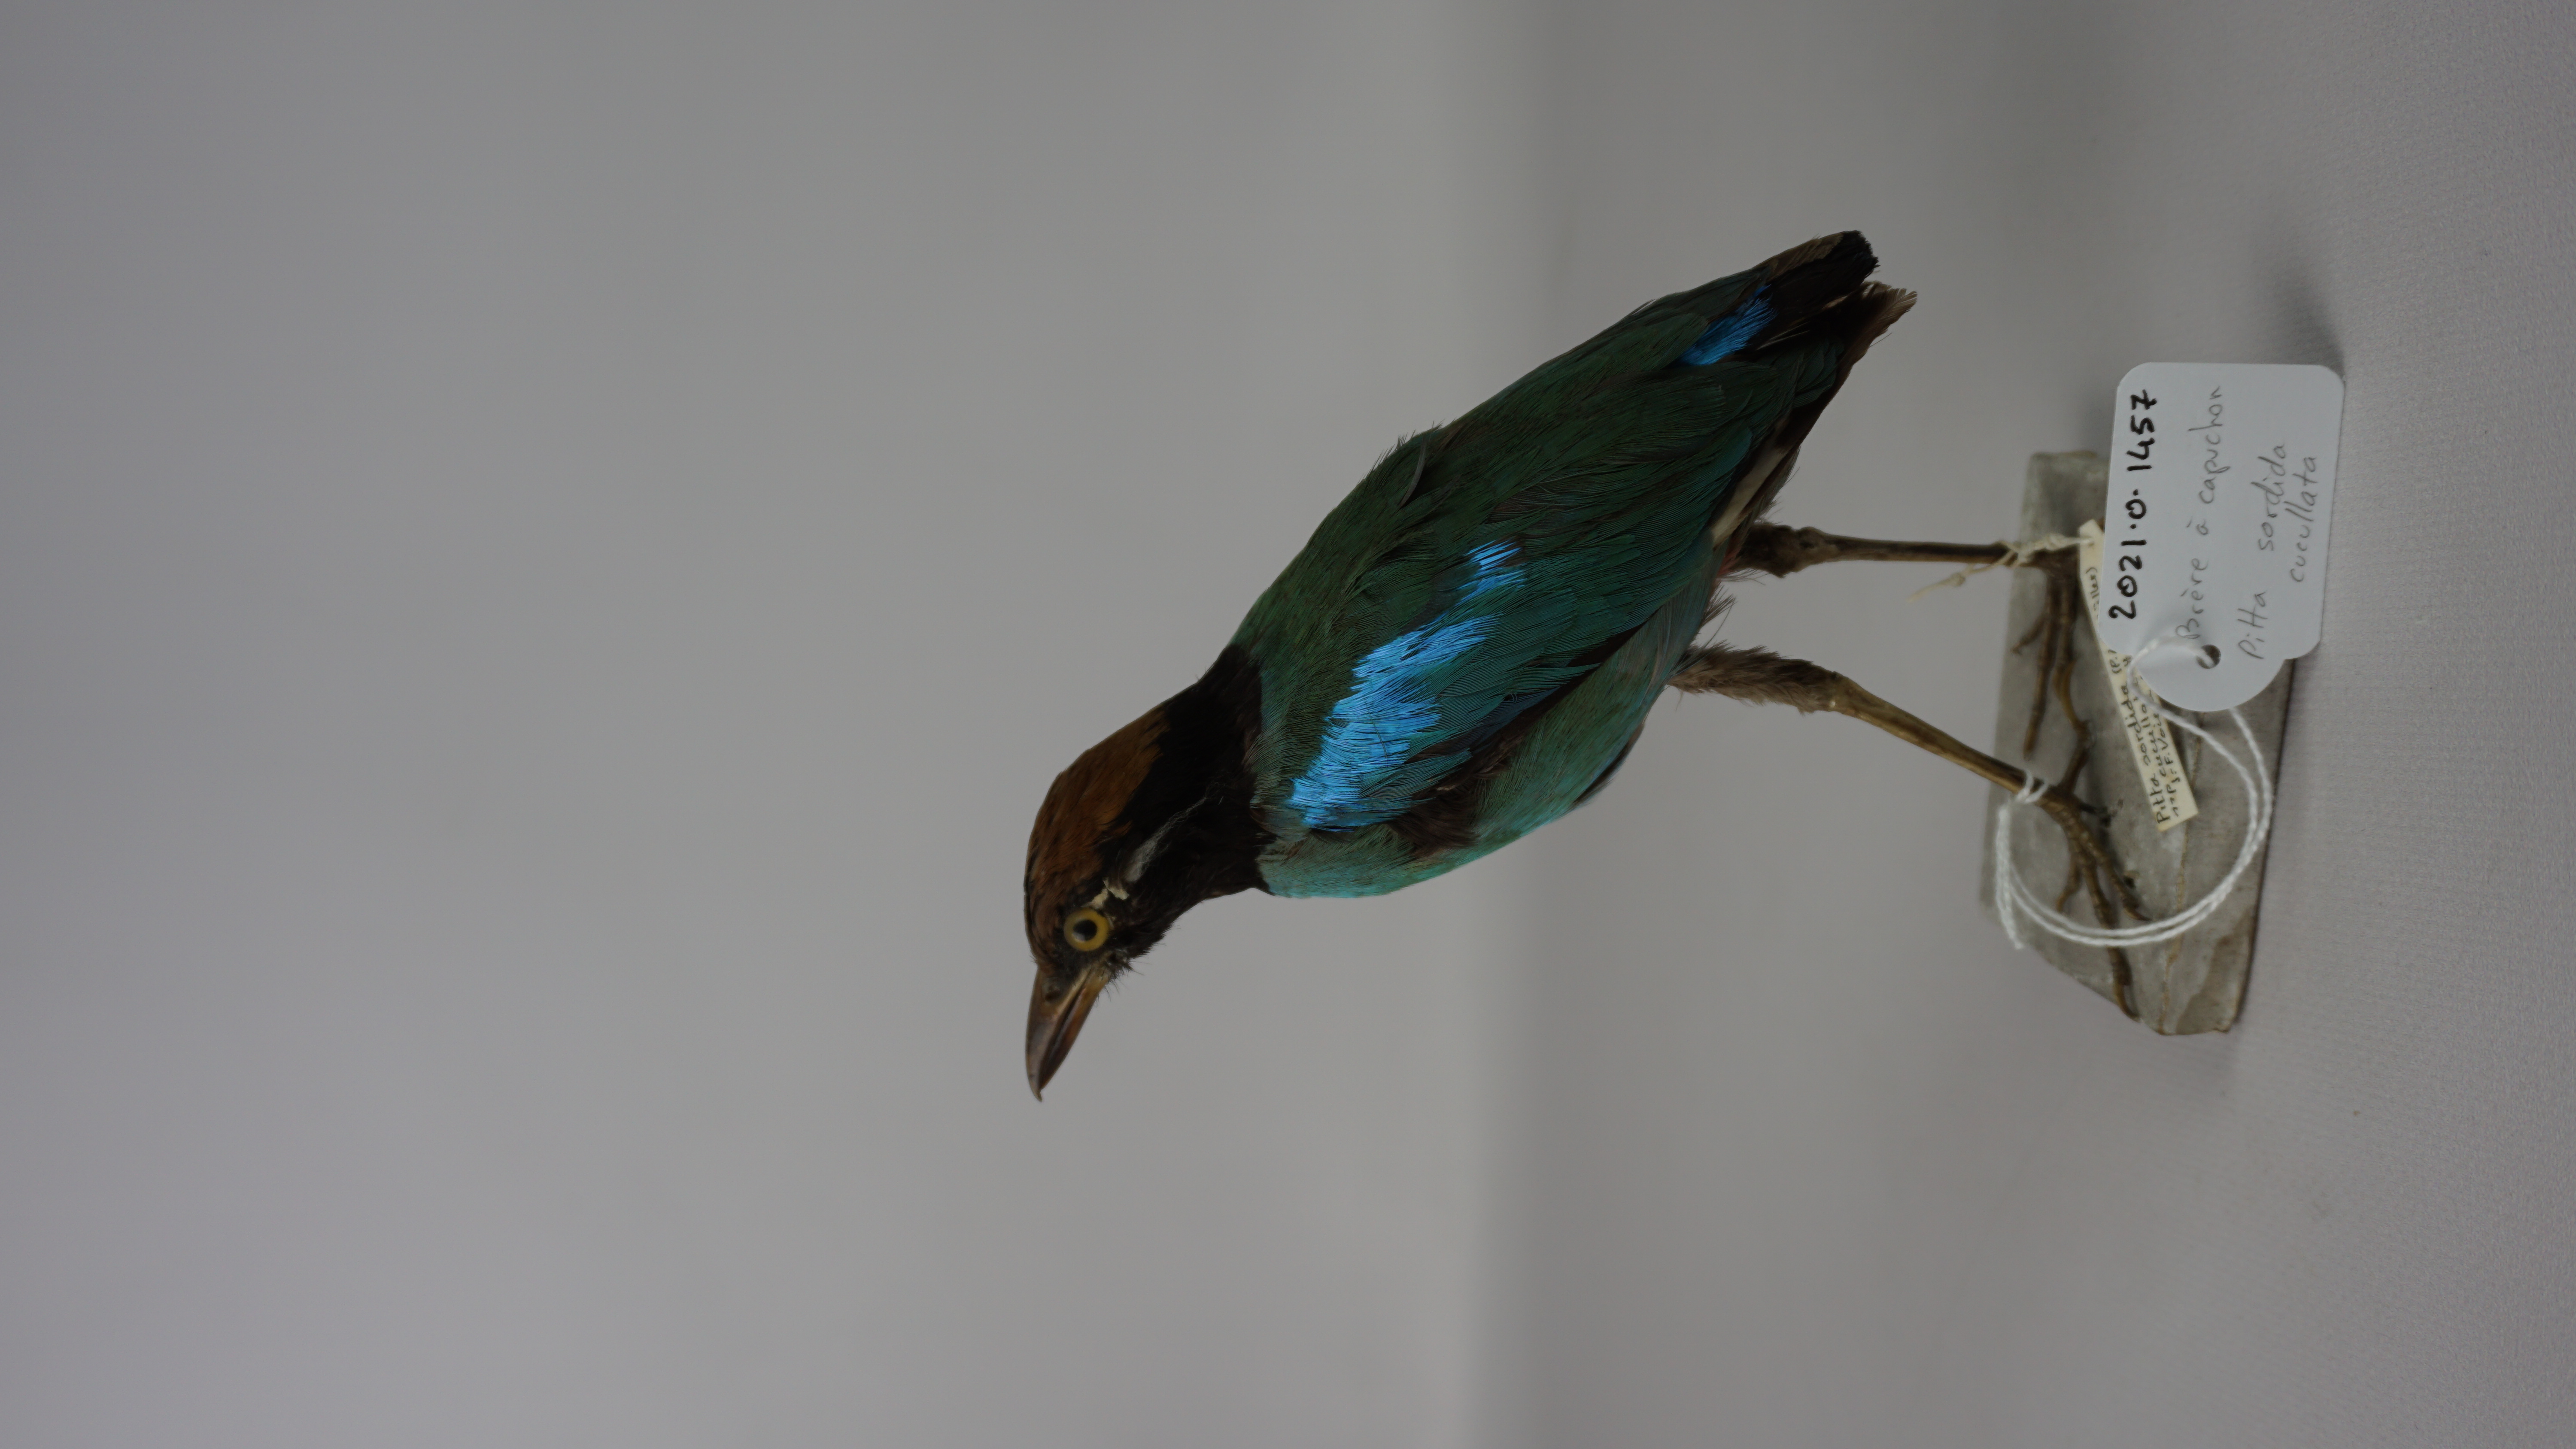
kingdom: Animalia
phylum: Chordata
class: Aves
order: Passeriformes
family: Pittidae
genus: Pitta
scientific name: Pitta sordida
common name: Hooded pitta
